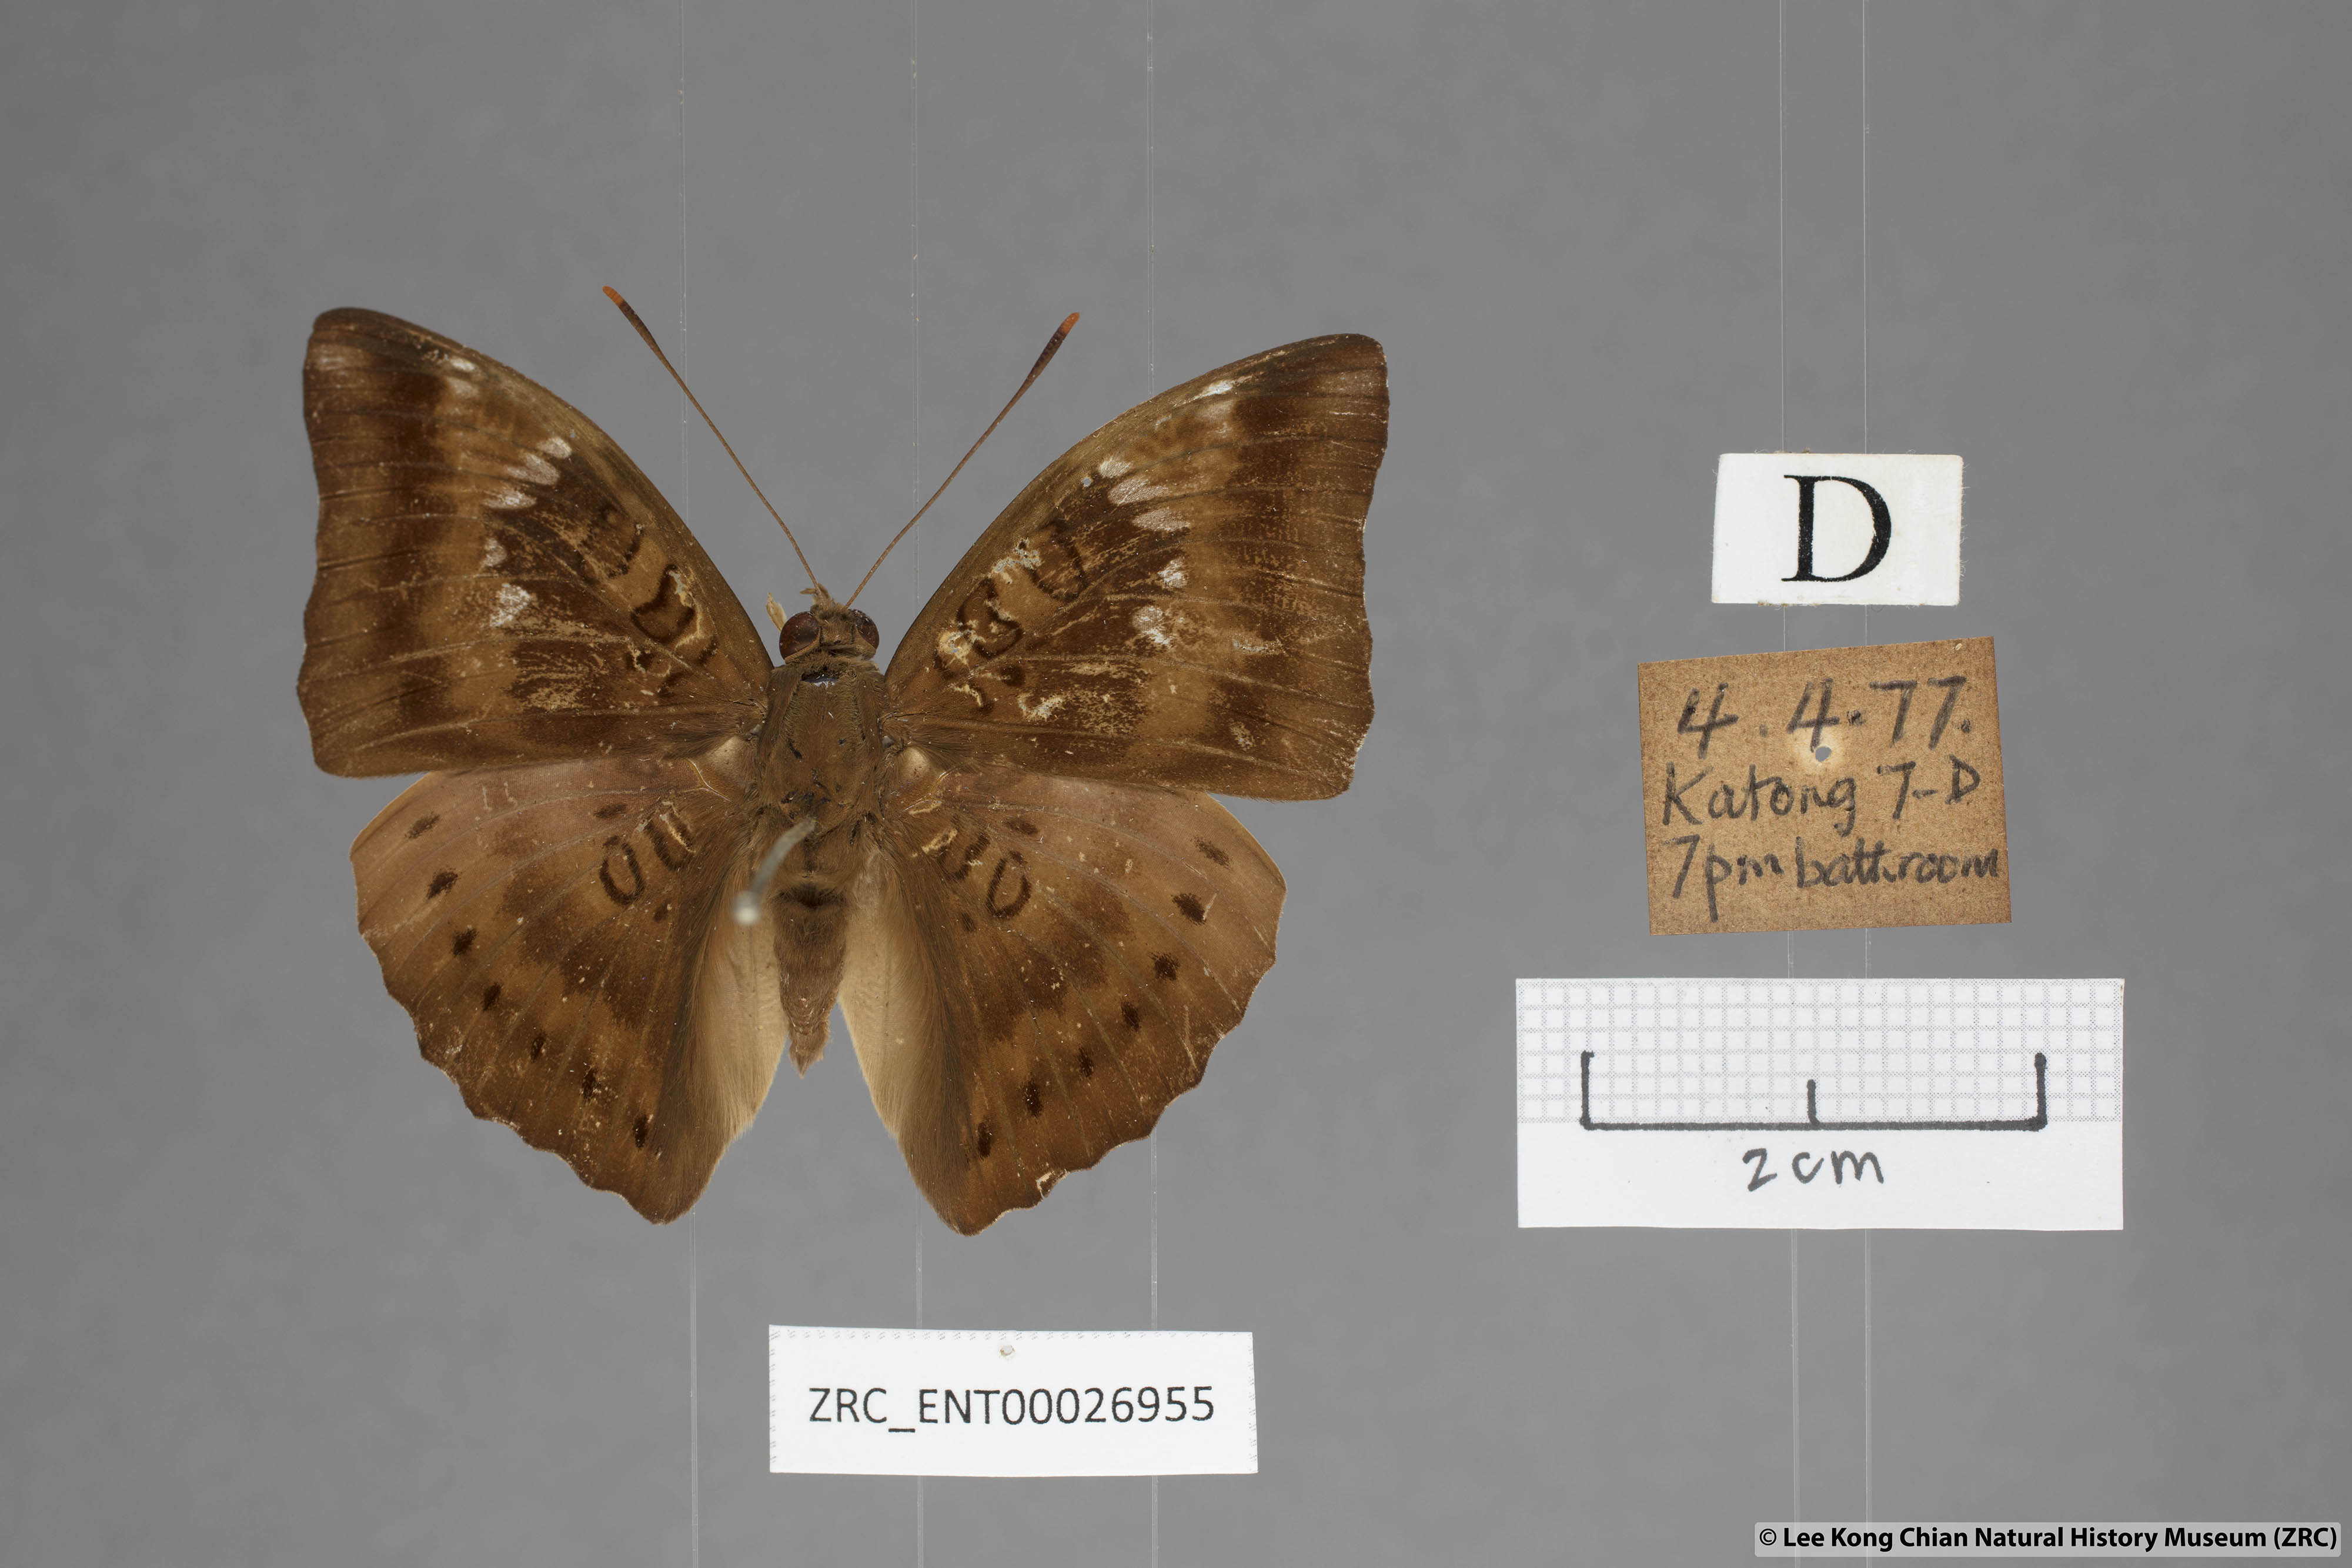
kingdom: Animalia
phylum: Arthropoda
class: Insecta
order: Lepidoptera
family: Nymphalidae
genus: Euthalia
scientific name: Euthalia aconthea
